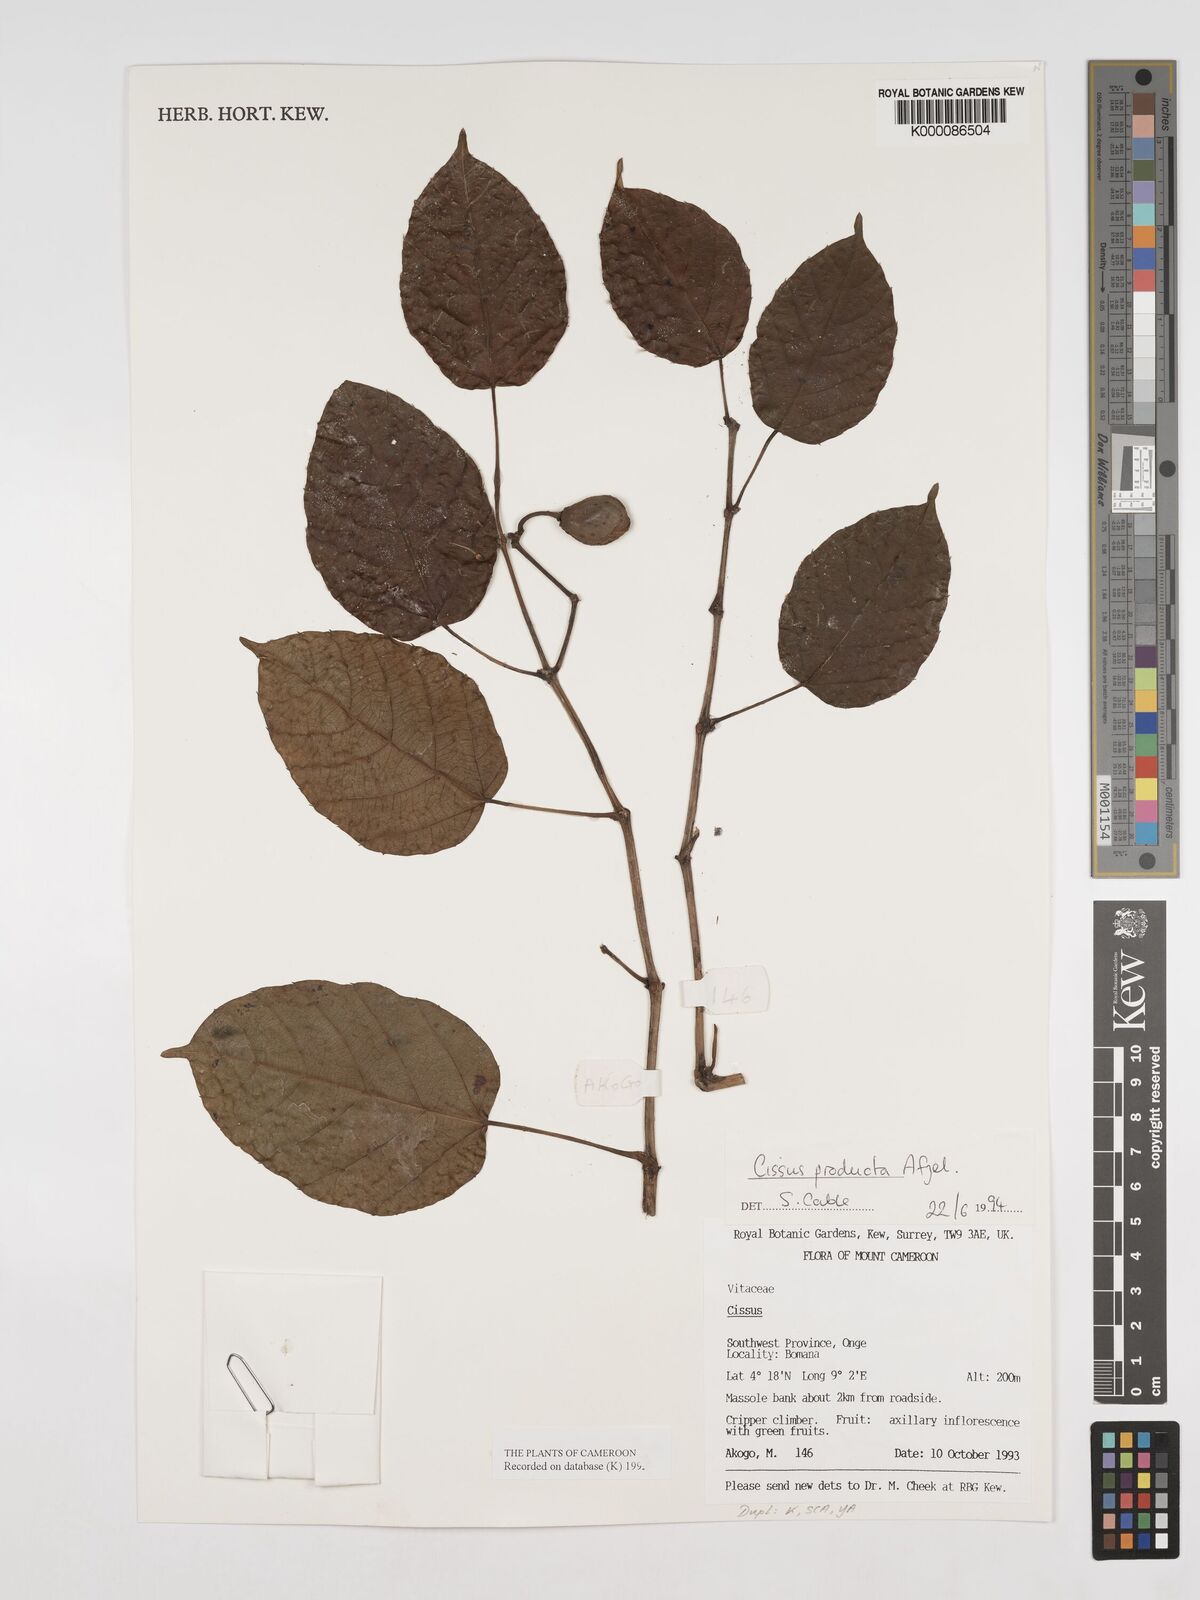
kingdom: Plantae
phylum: Tracheophyta
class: Magnoliopsida
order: Vitales
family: Vitaceae
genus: Cissus
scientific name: Cissus producta
